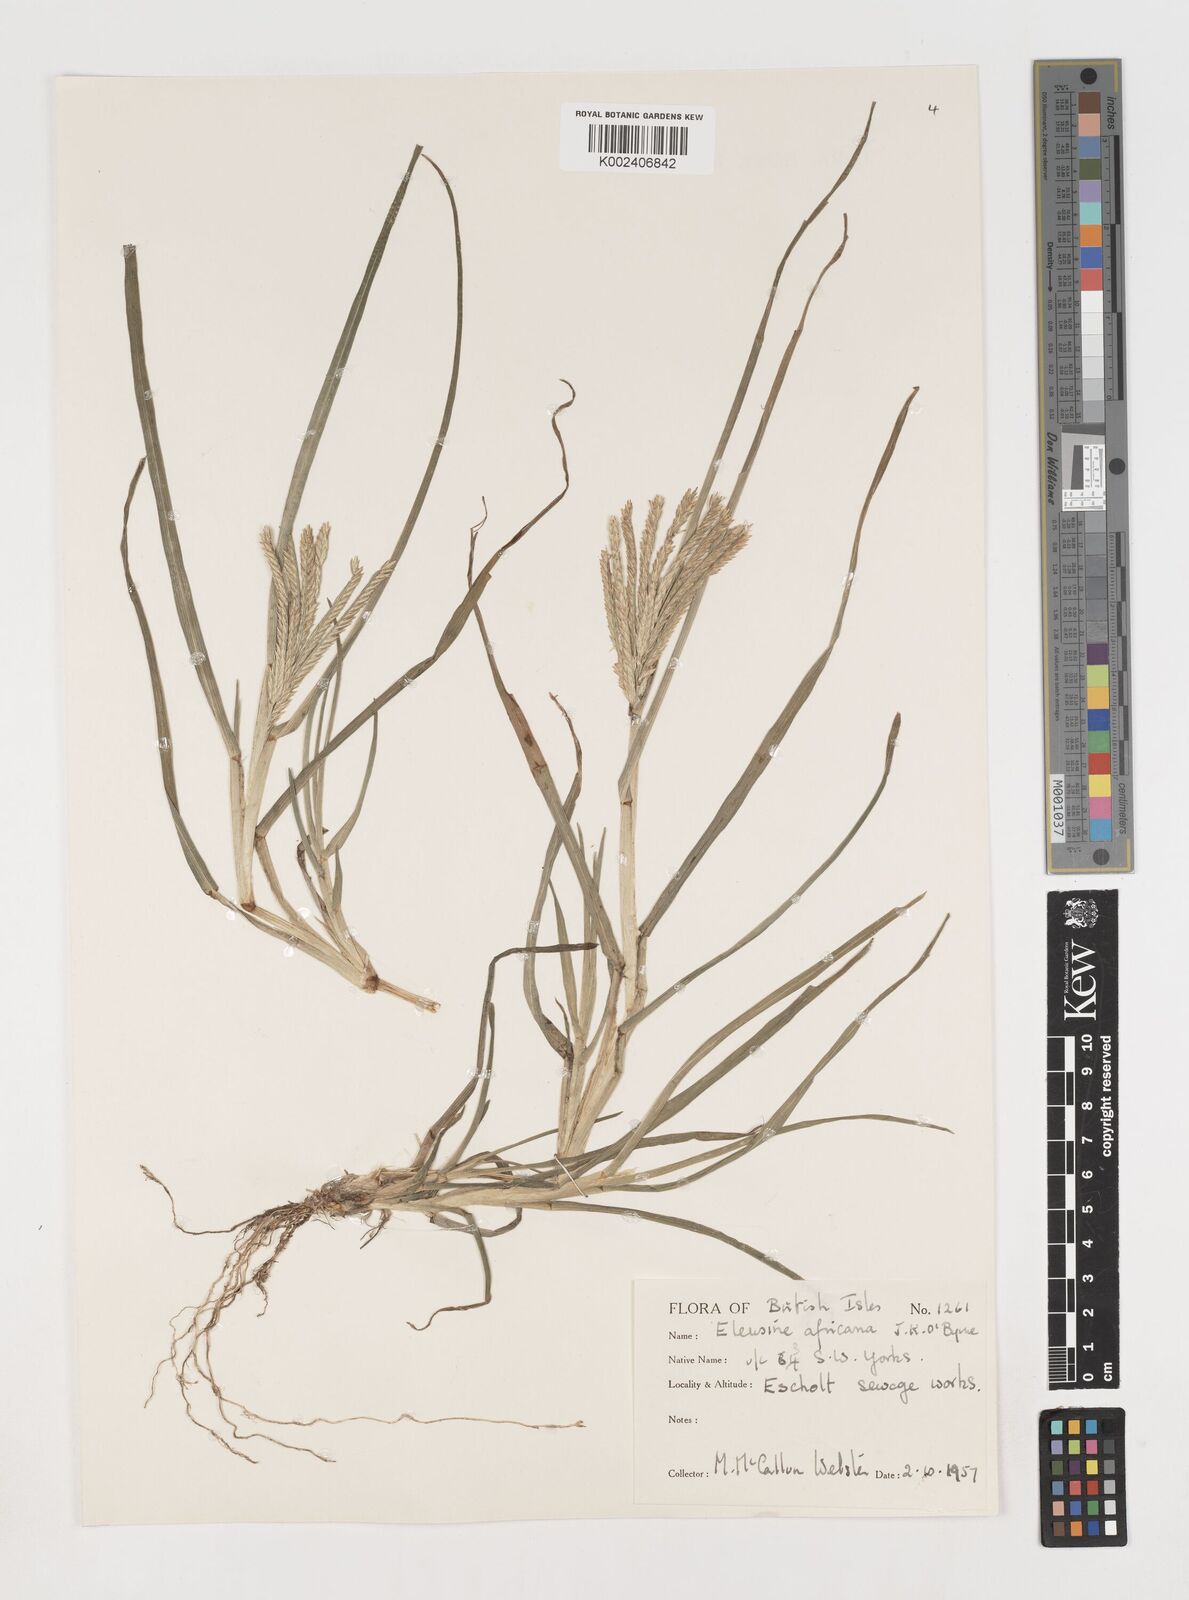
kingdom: Plantae
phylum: Tracheophyta
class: Liliopsida
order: Poales
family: Poaceae
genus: Eleusine
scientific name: Eleusine africana
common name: Wild african finger millet
